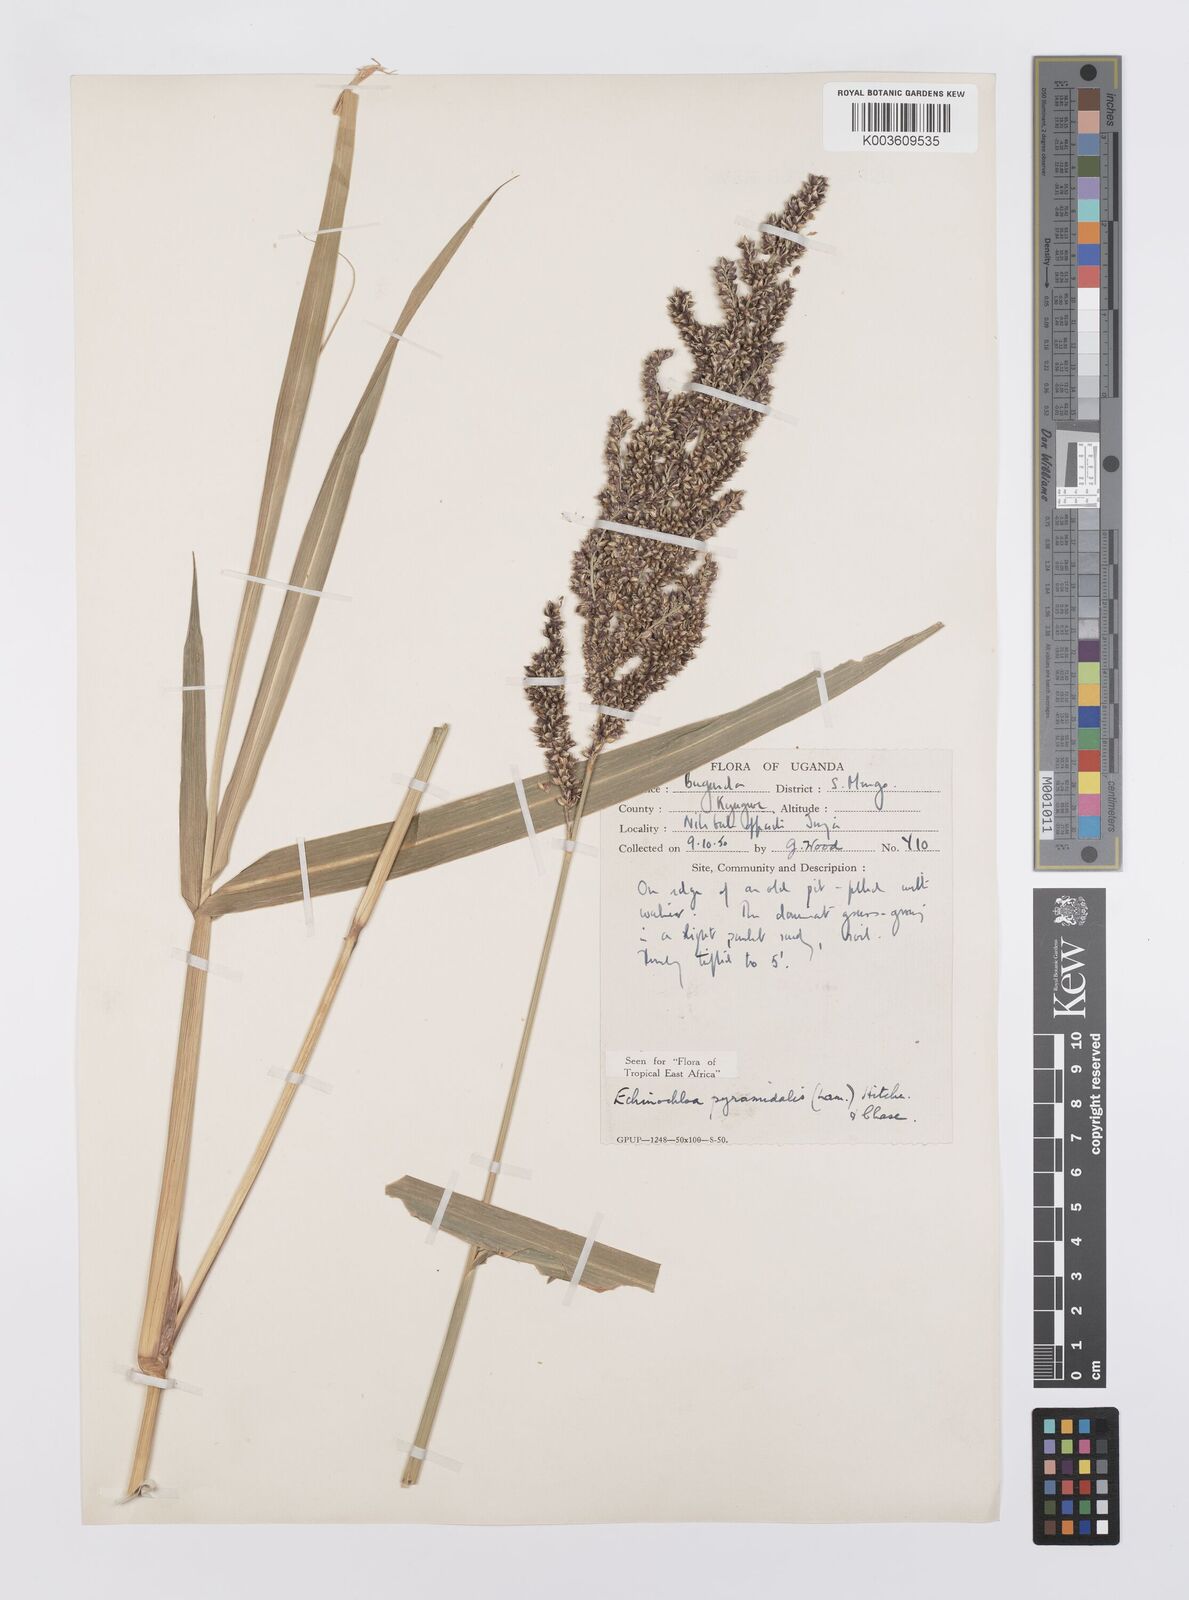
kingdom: Plantae
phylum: Tracheophyta
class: Liliopsida
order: Poales
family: Poaceae
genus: Echinochloa
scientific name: Echinochloa pyramidalis
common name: Antelope grass
